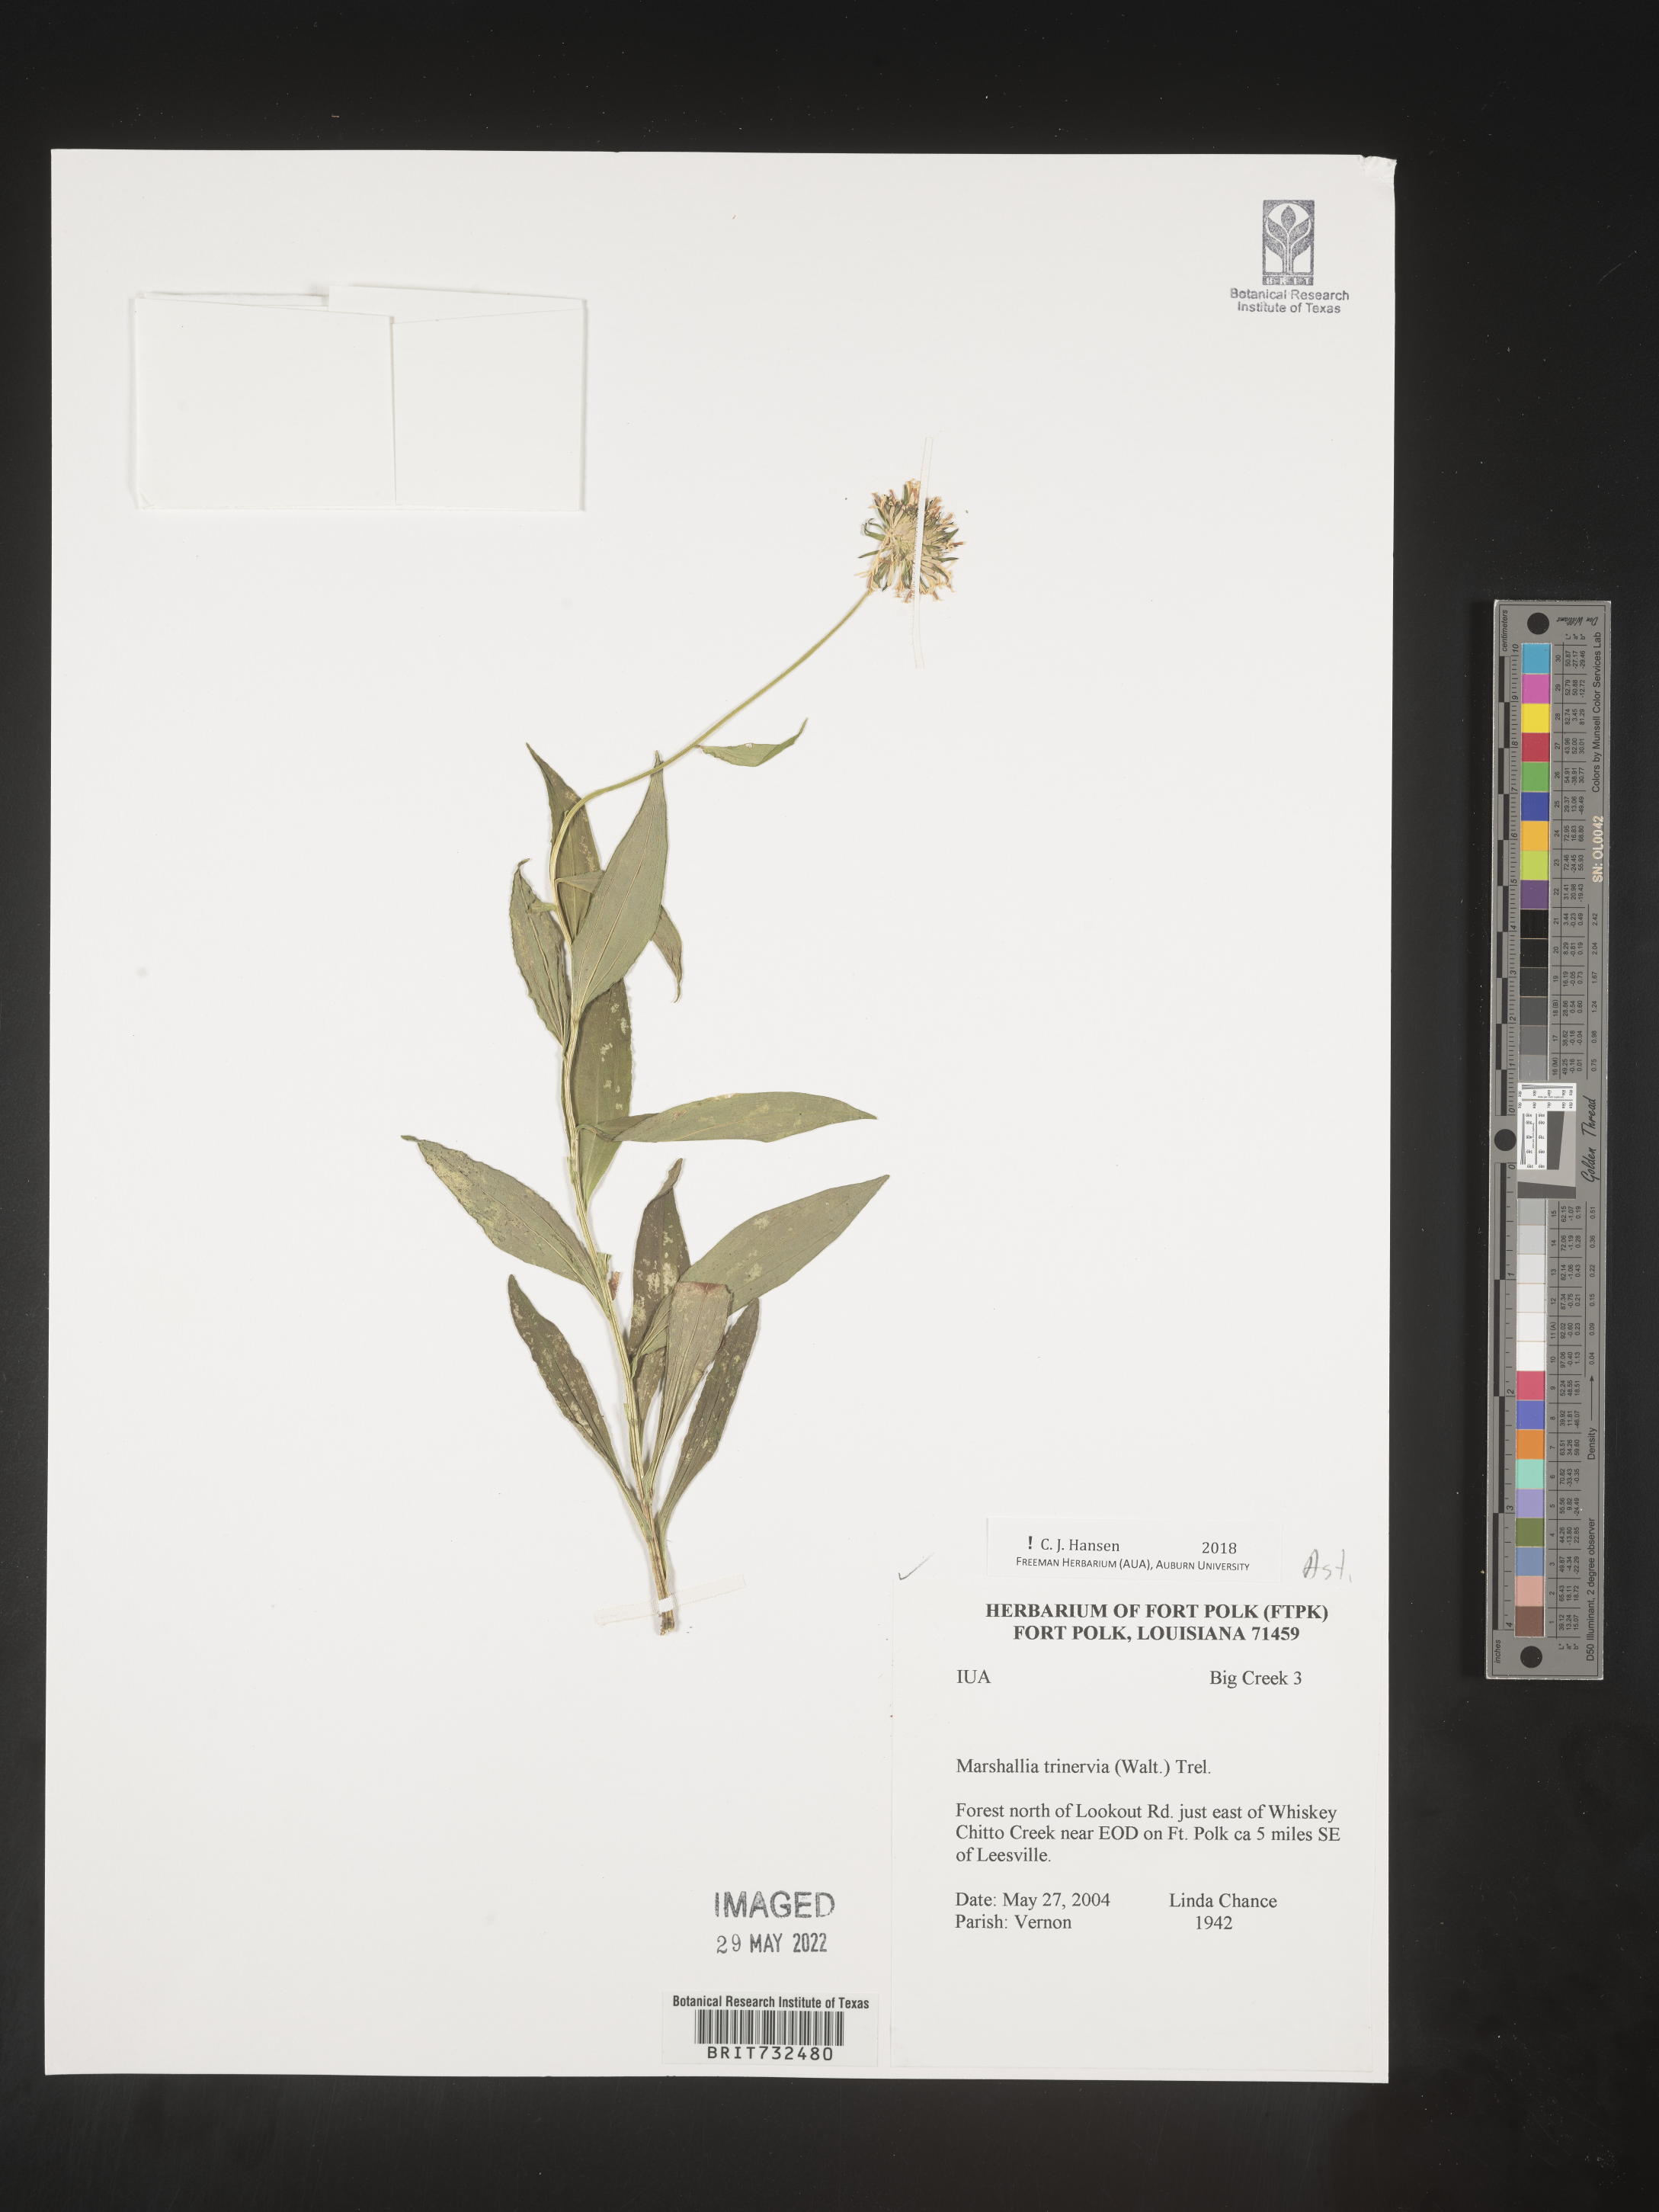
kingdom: Plantae
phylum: Tracheophyta
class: Magnoliopsida
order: Asterales
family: Asteraceae
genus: Marshallia
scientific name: Marshallia trinervia
